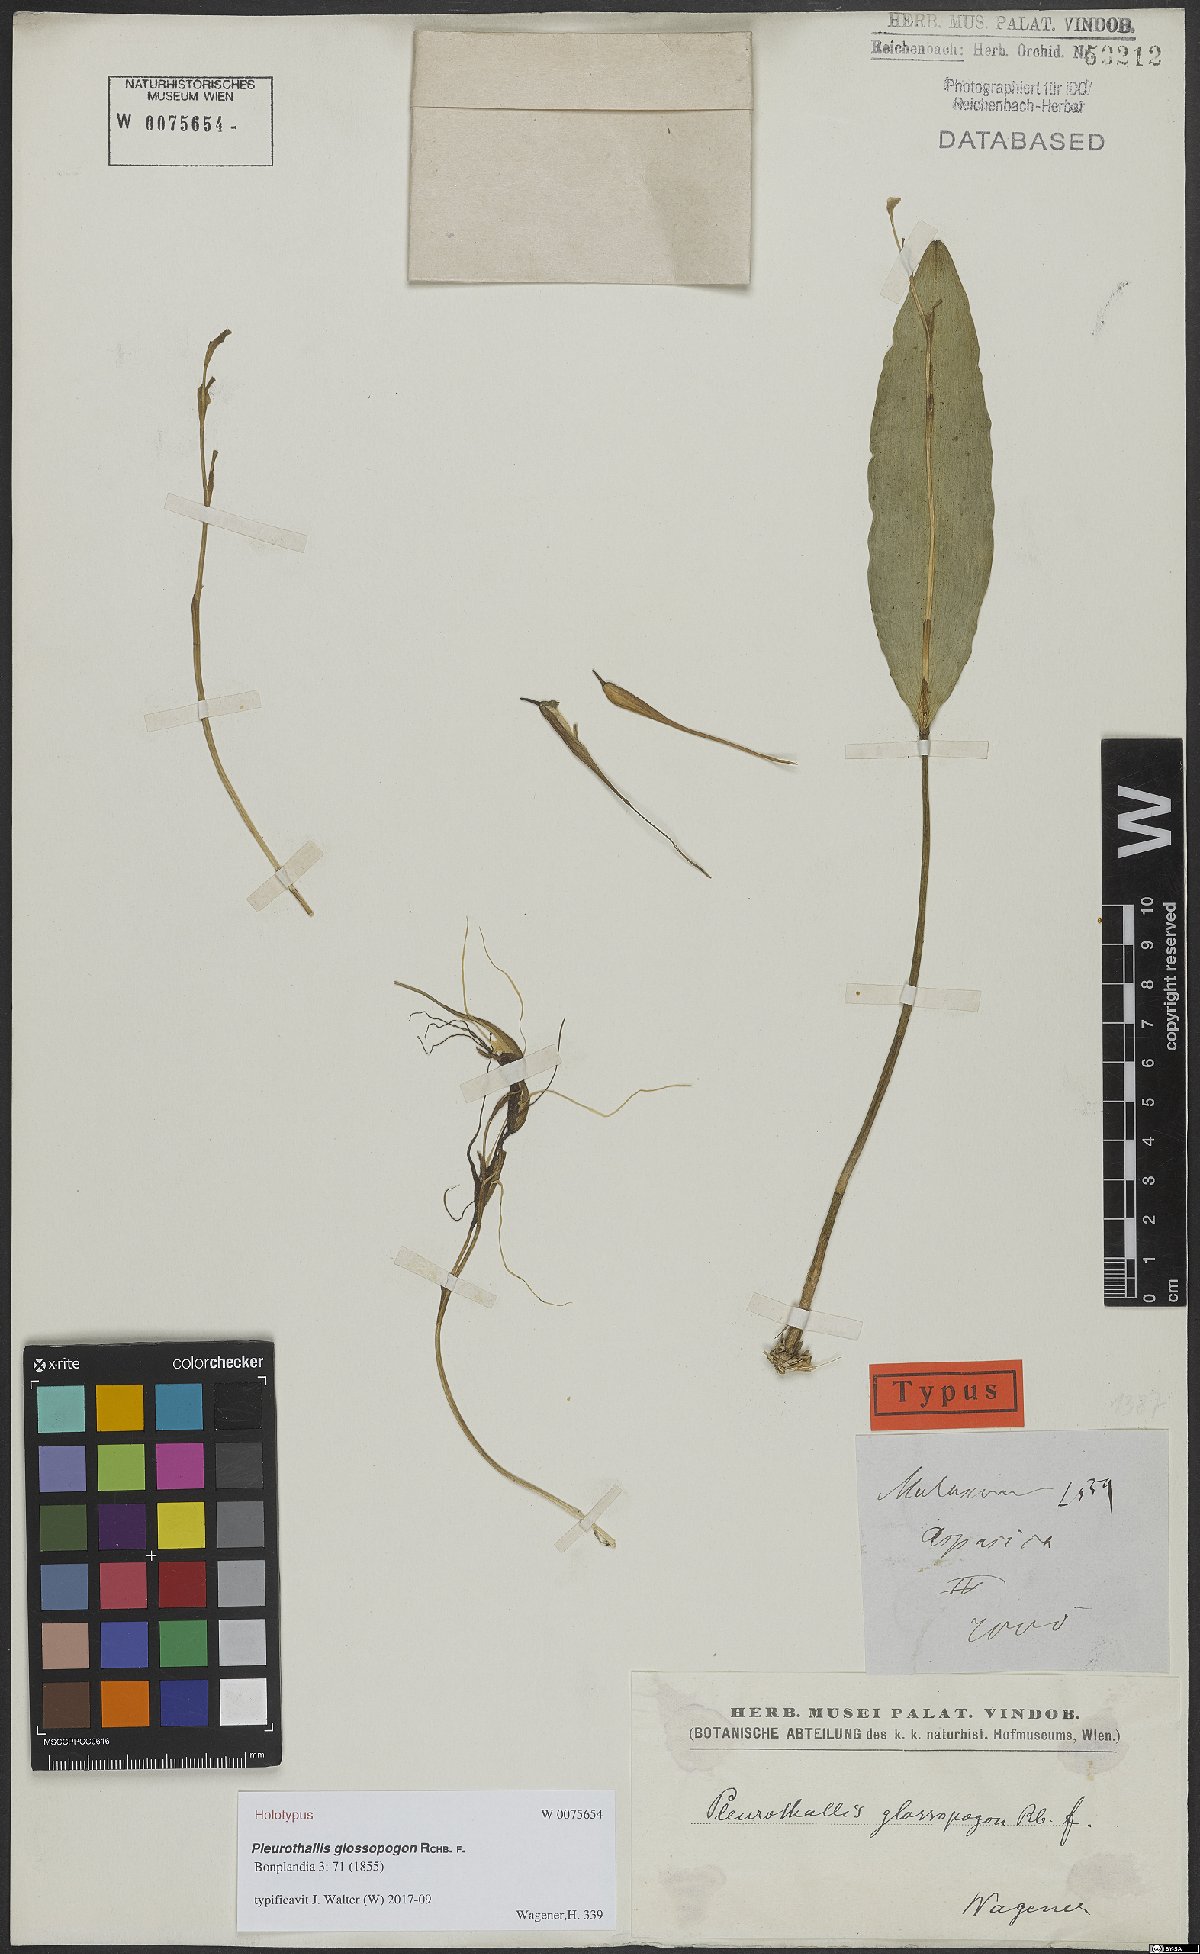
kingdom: Plantae
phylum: Tracheophyta
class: Liliopsida
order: Asparagales
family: Orchidaceae
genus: Pleurothallis
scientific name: Pleurothallis glossopogon
